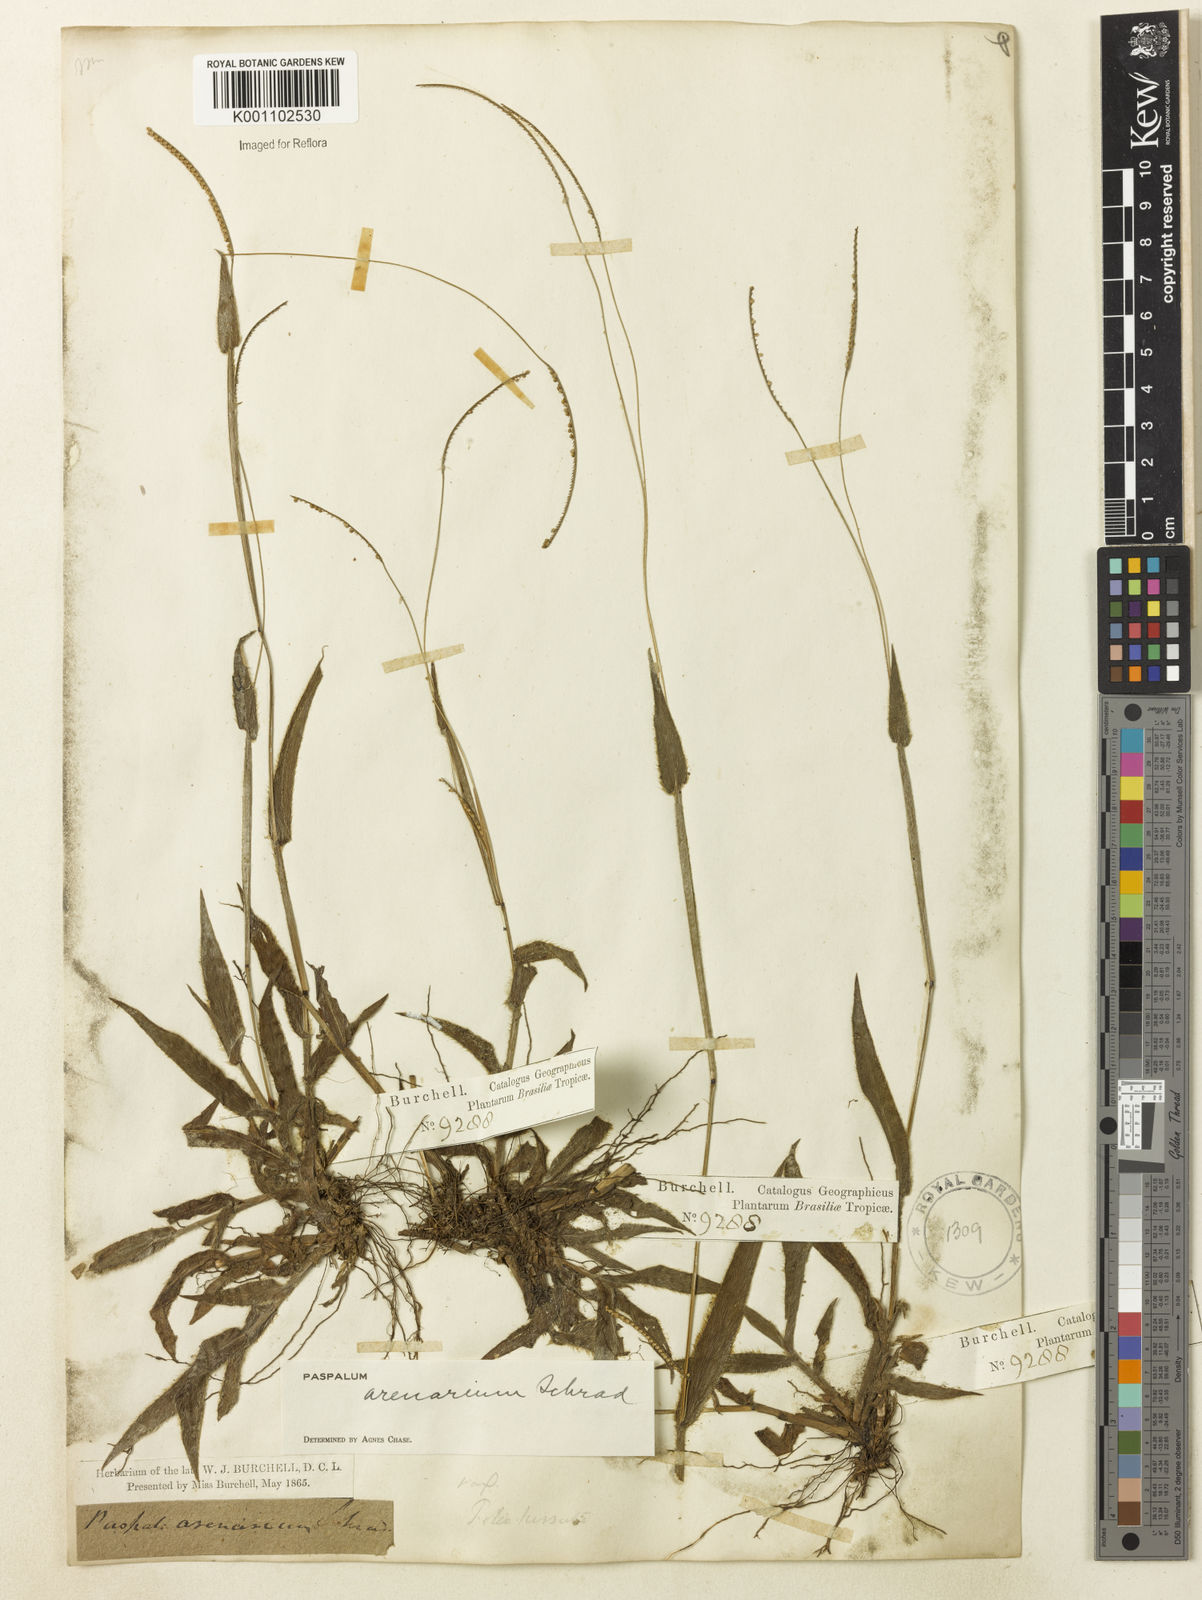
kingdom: Plantae
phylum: Tracheophyta
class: Liliopsida
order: Poales
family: Poaceae
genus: Paspalum
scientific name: Paspalum arenarium
